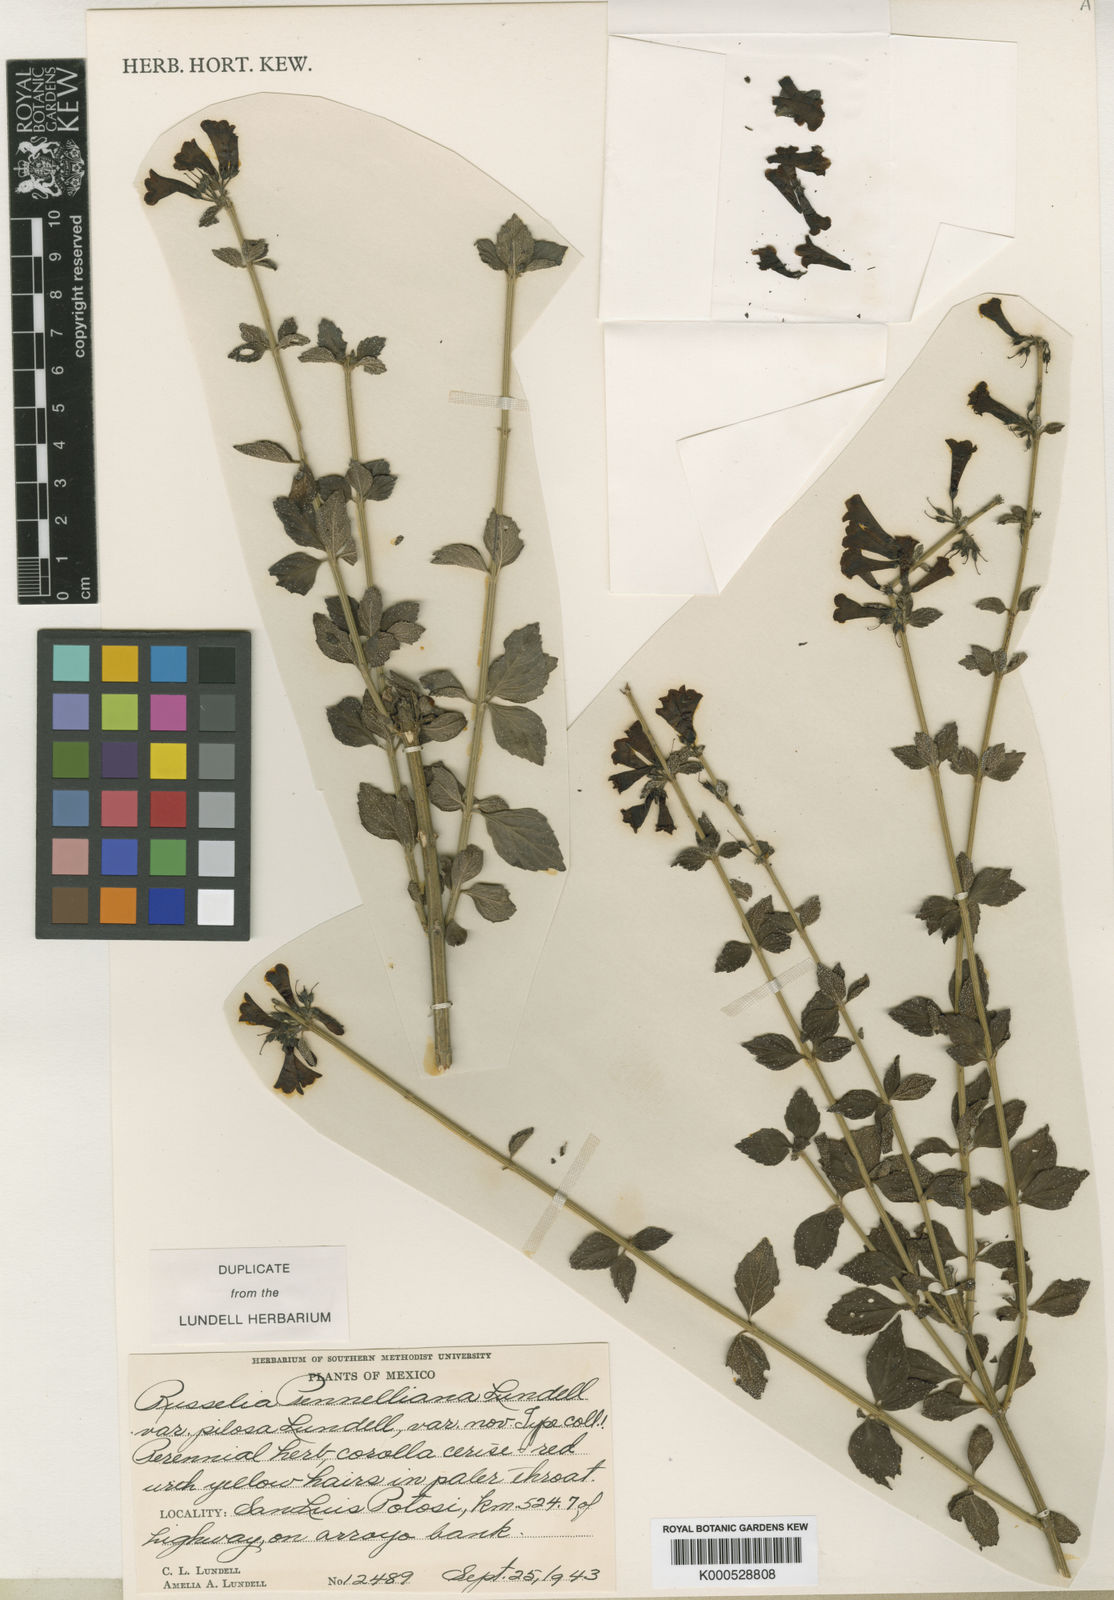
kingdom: Plantae
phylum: Tracheophyta
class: Magnoliopsida
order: Lamiales
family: Plantaginaceae
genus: Russelia
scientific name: Russelia polyedra
